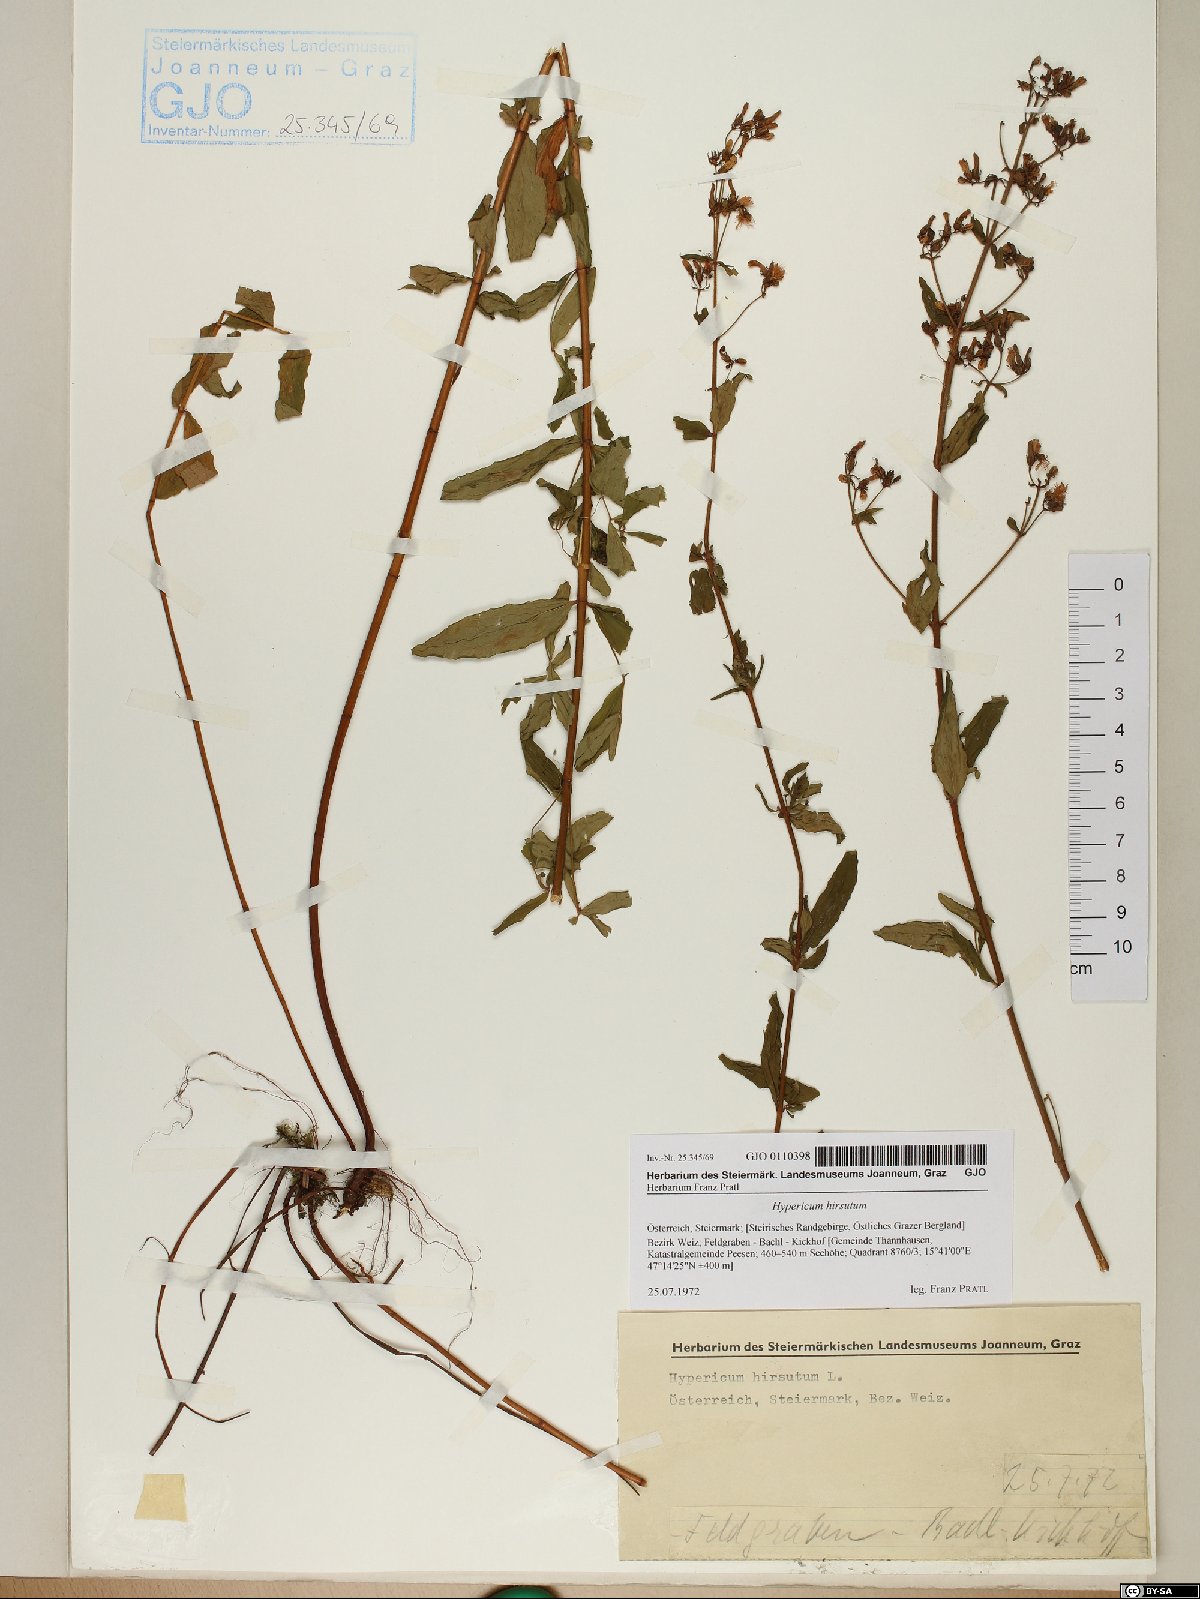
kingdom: Plantae
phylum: Tracheophyta
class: Magnoliopsida
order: Malpighiales
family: Hypericaceae
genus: Hypericum
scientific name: Hypericum hirsutum
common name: Hairy st. john's-wort
